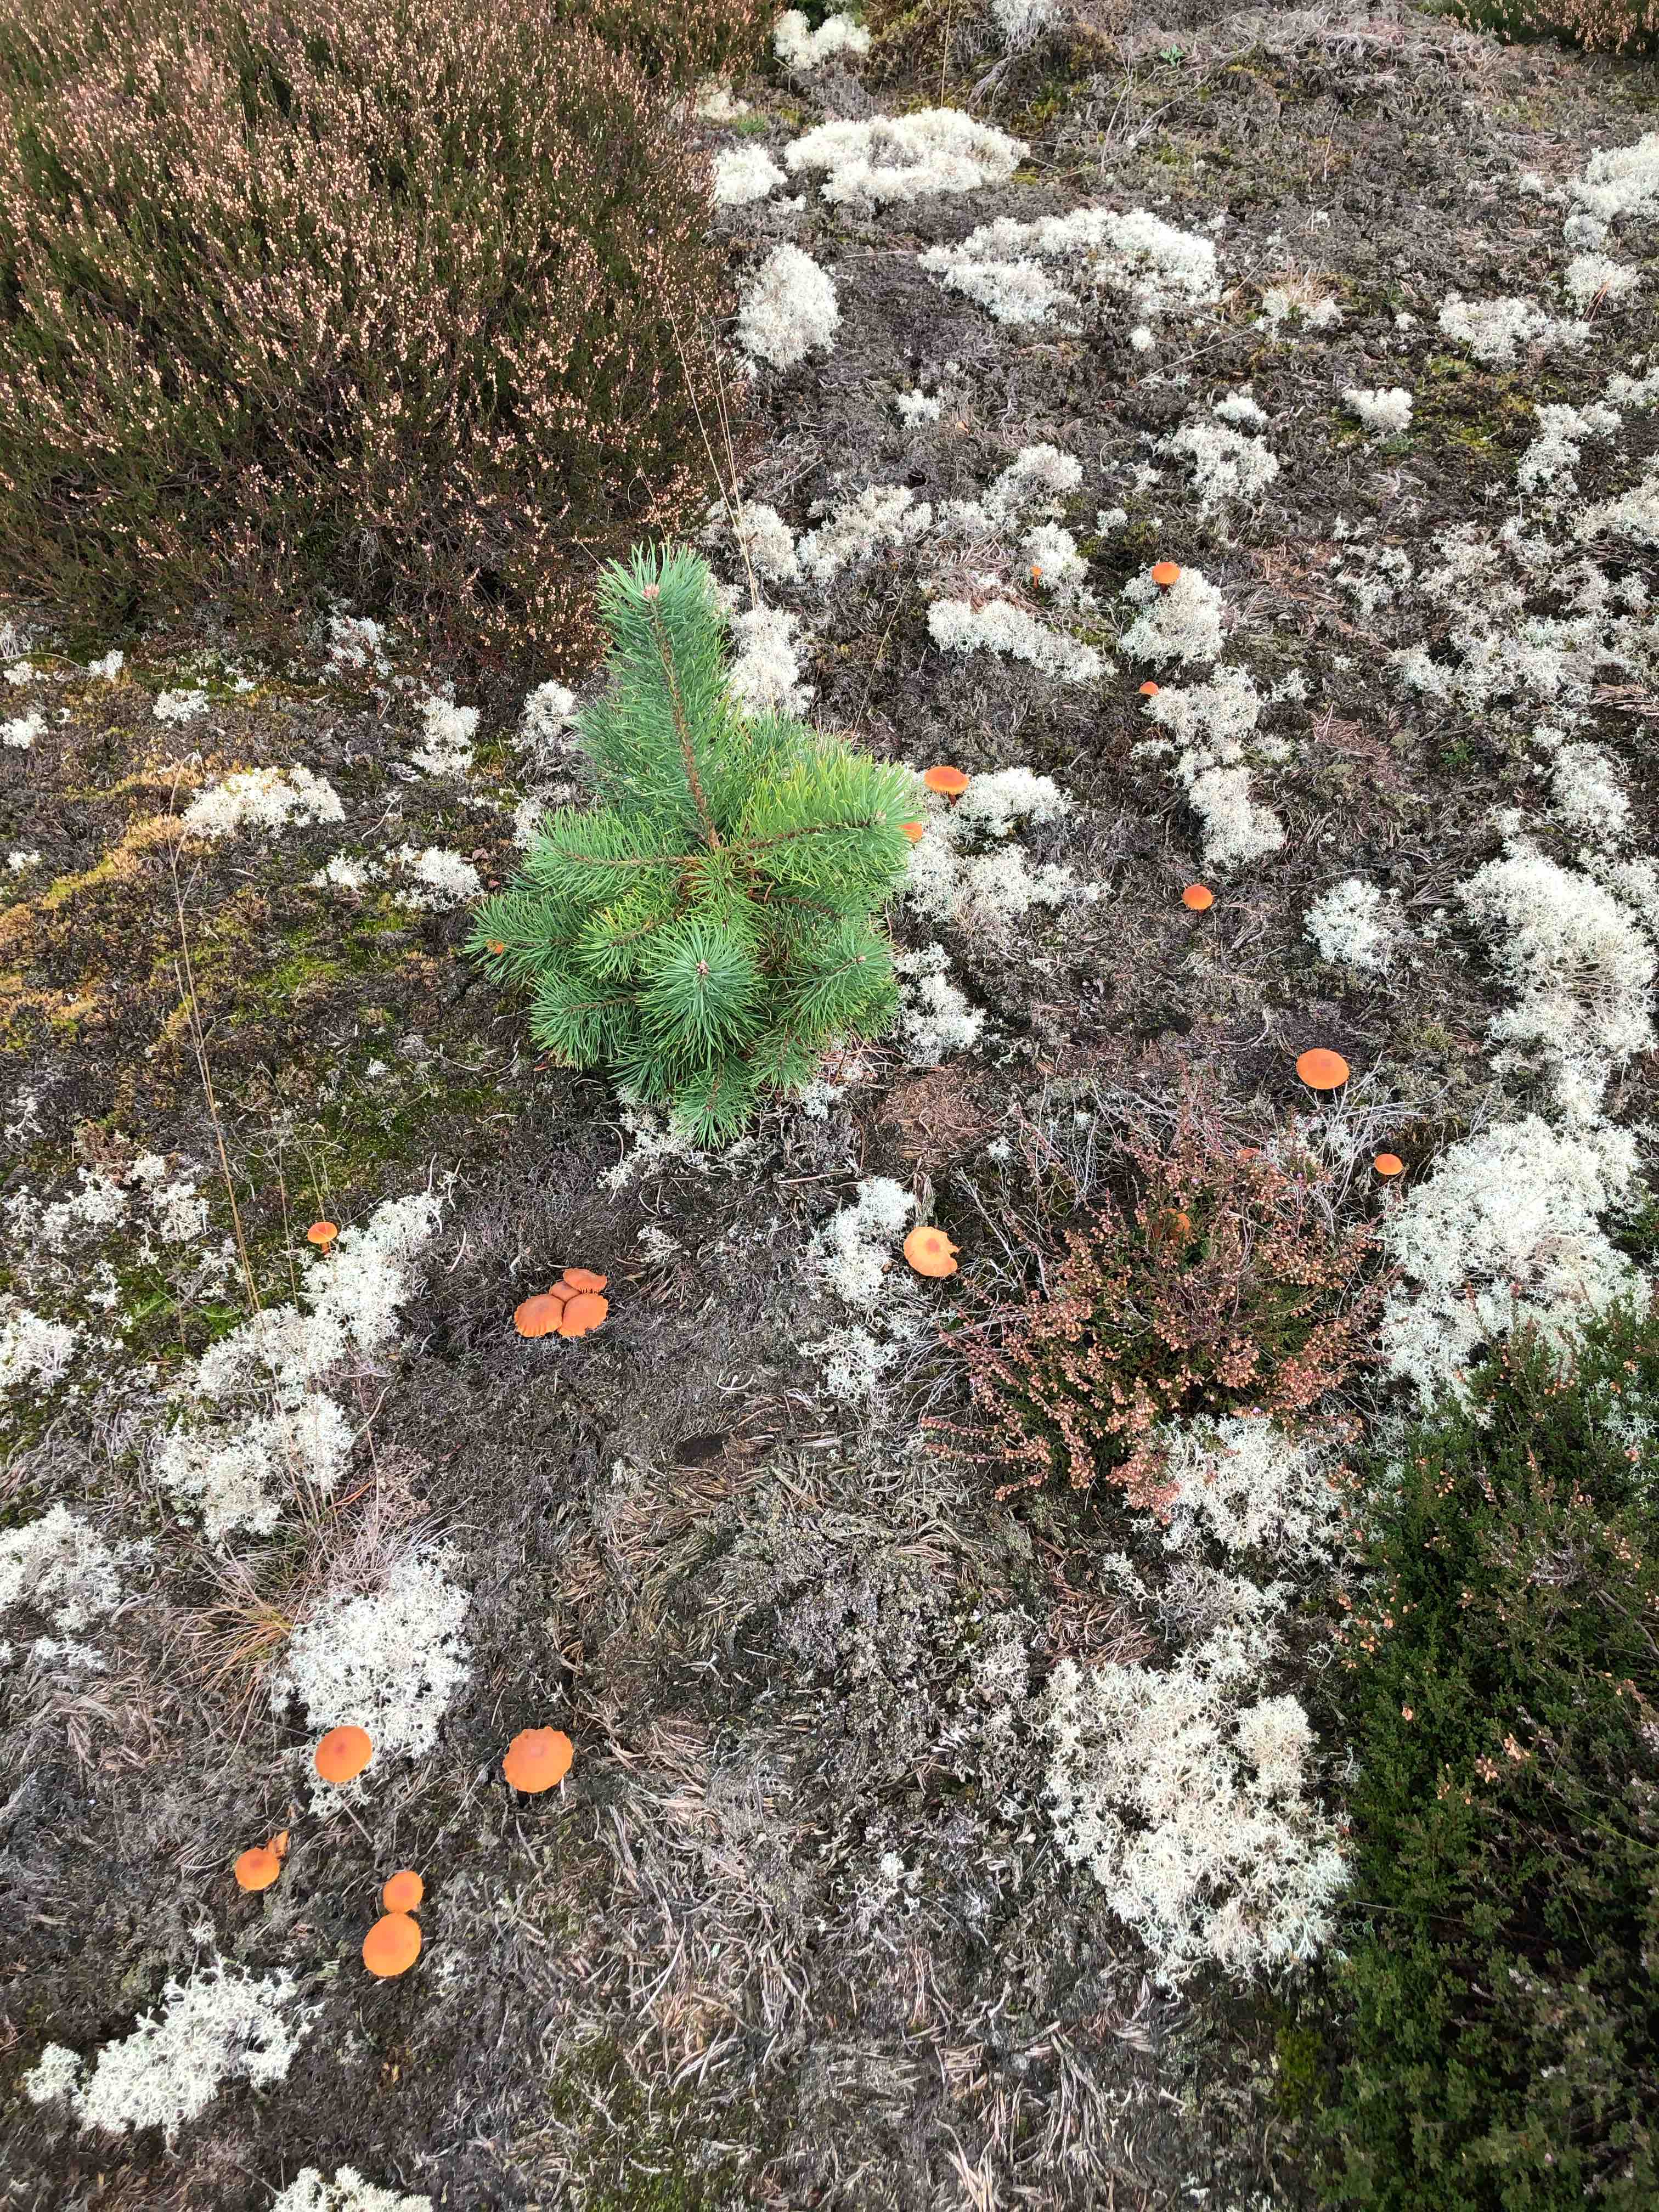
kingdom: Fungi
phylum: Basidiomycota
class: Agaricomycetes
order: Agaricales
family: Hydnangiaceae
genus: Laccaria
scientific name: Laccaria laccata
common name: rød ametysthat
